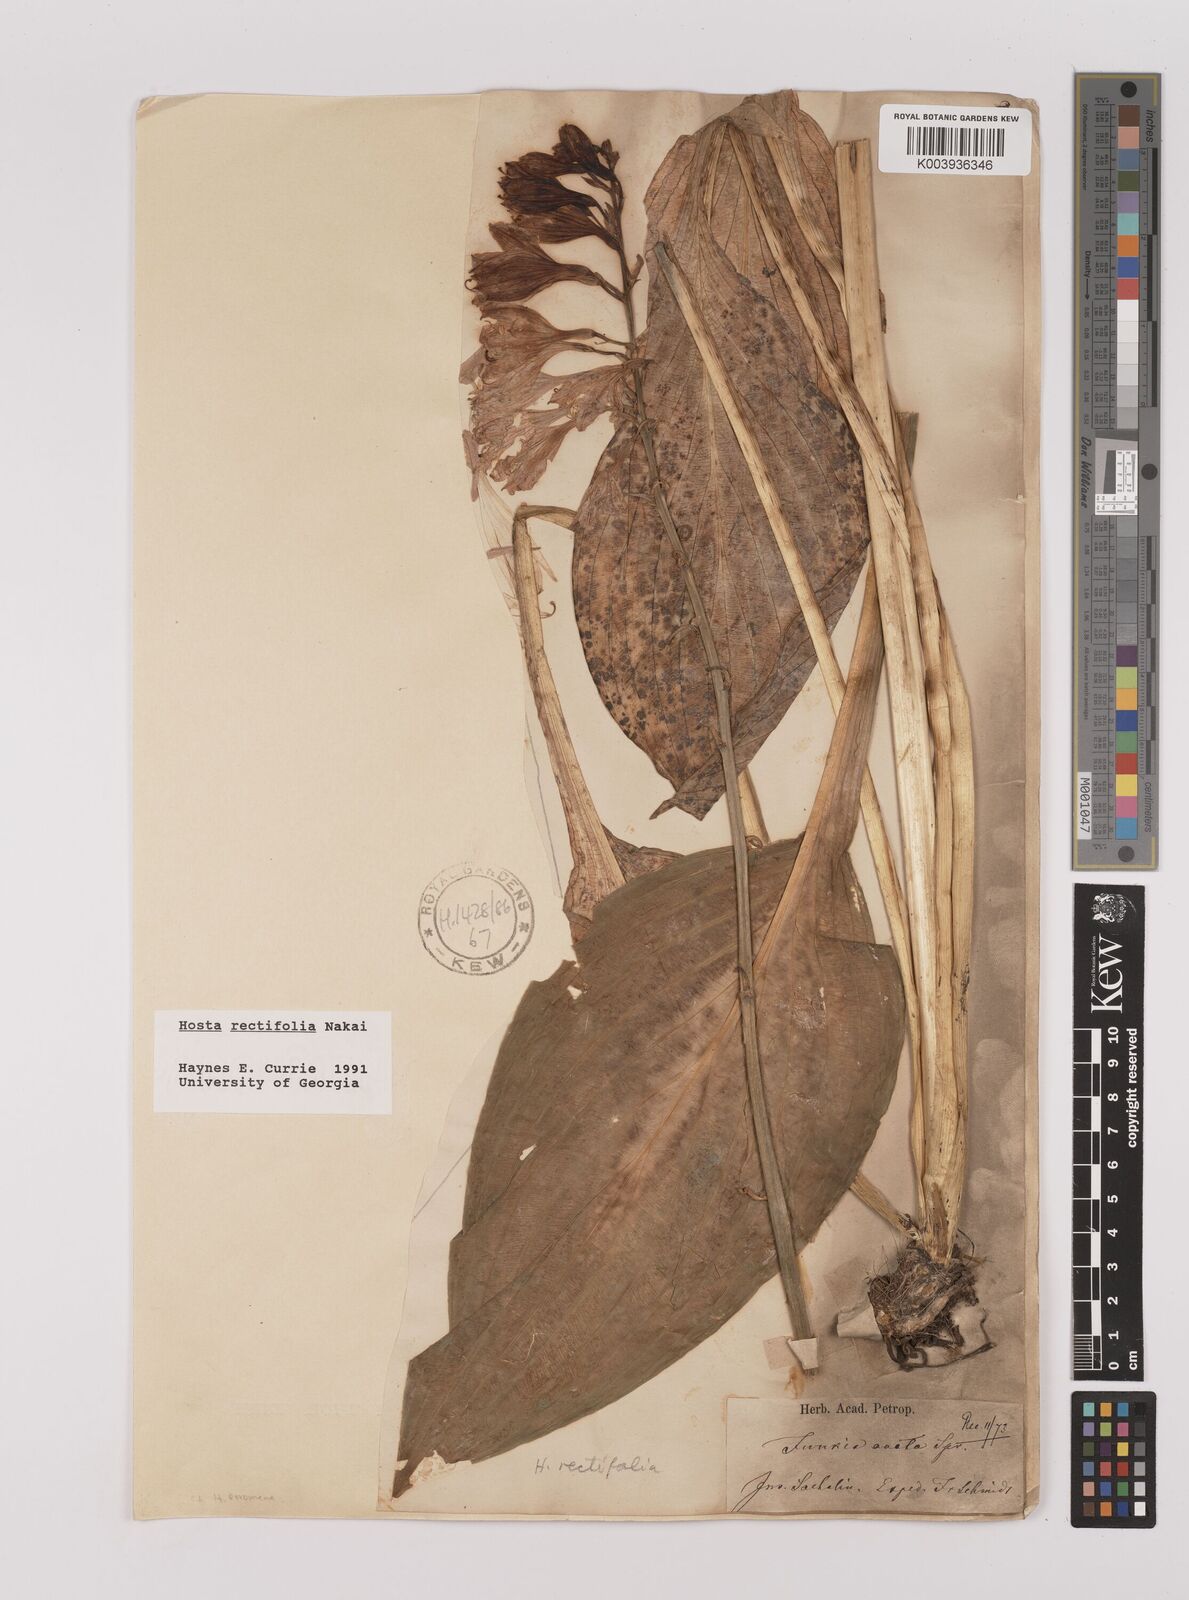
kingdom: Plantae
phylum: Tracheophyta
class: Liliopsida
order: Asparagales
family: Asparagaceae
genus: Hosta
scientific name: Hosta sieboldii
